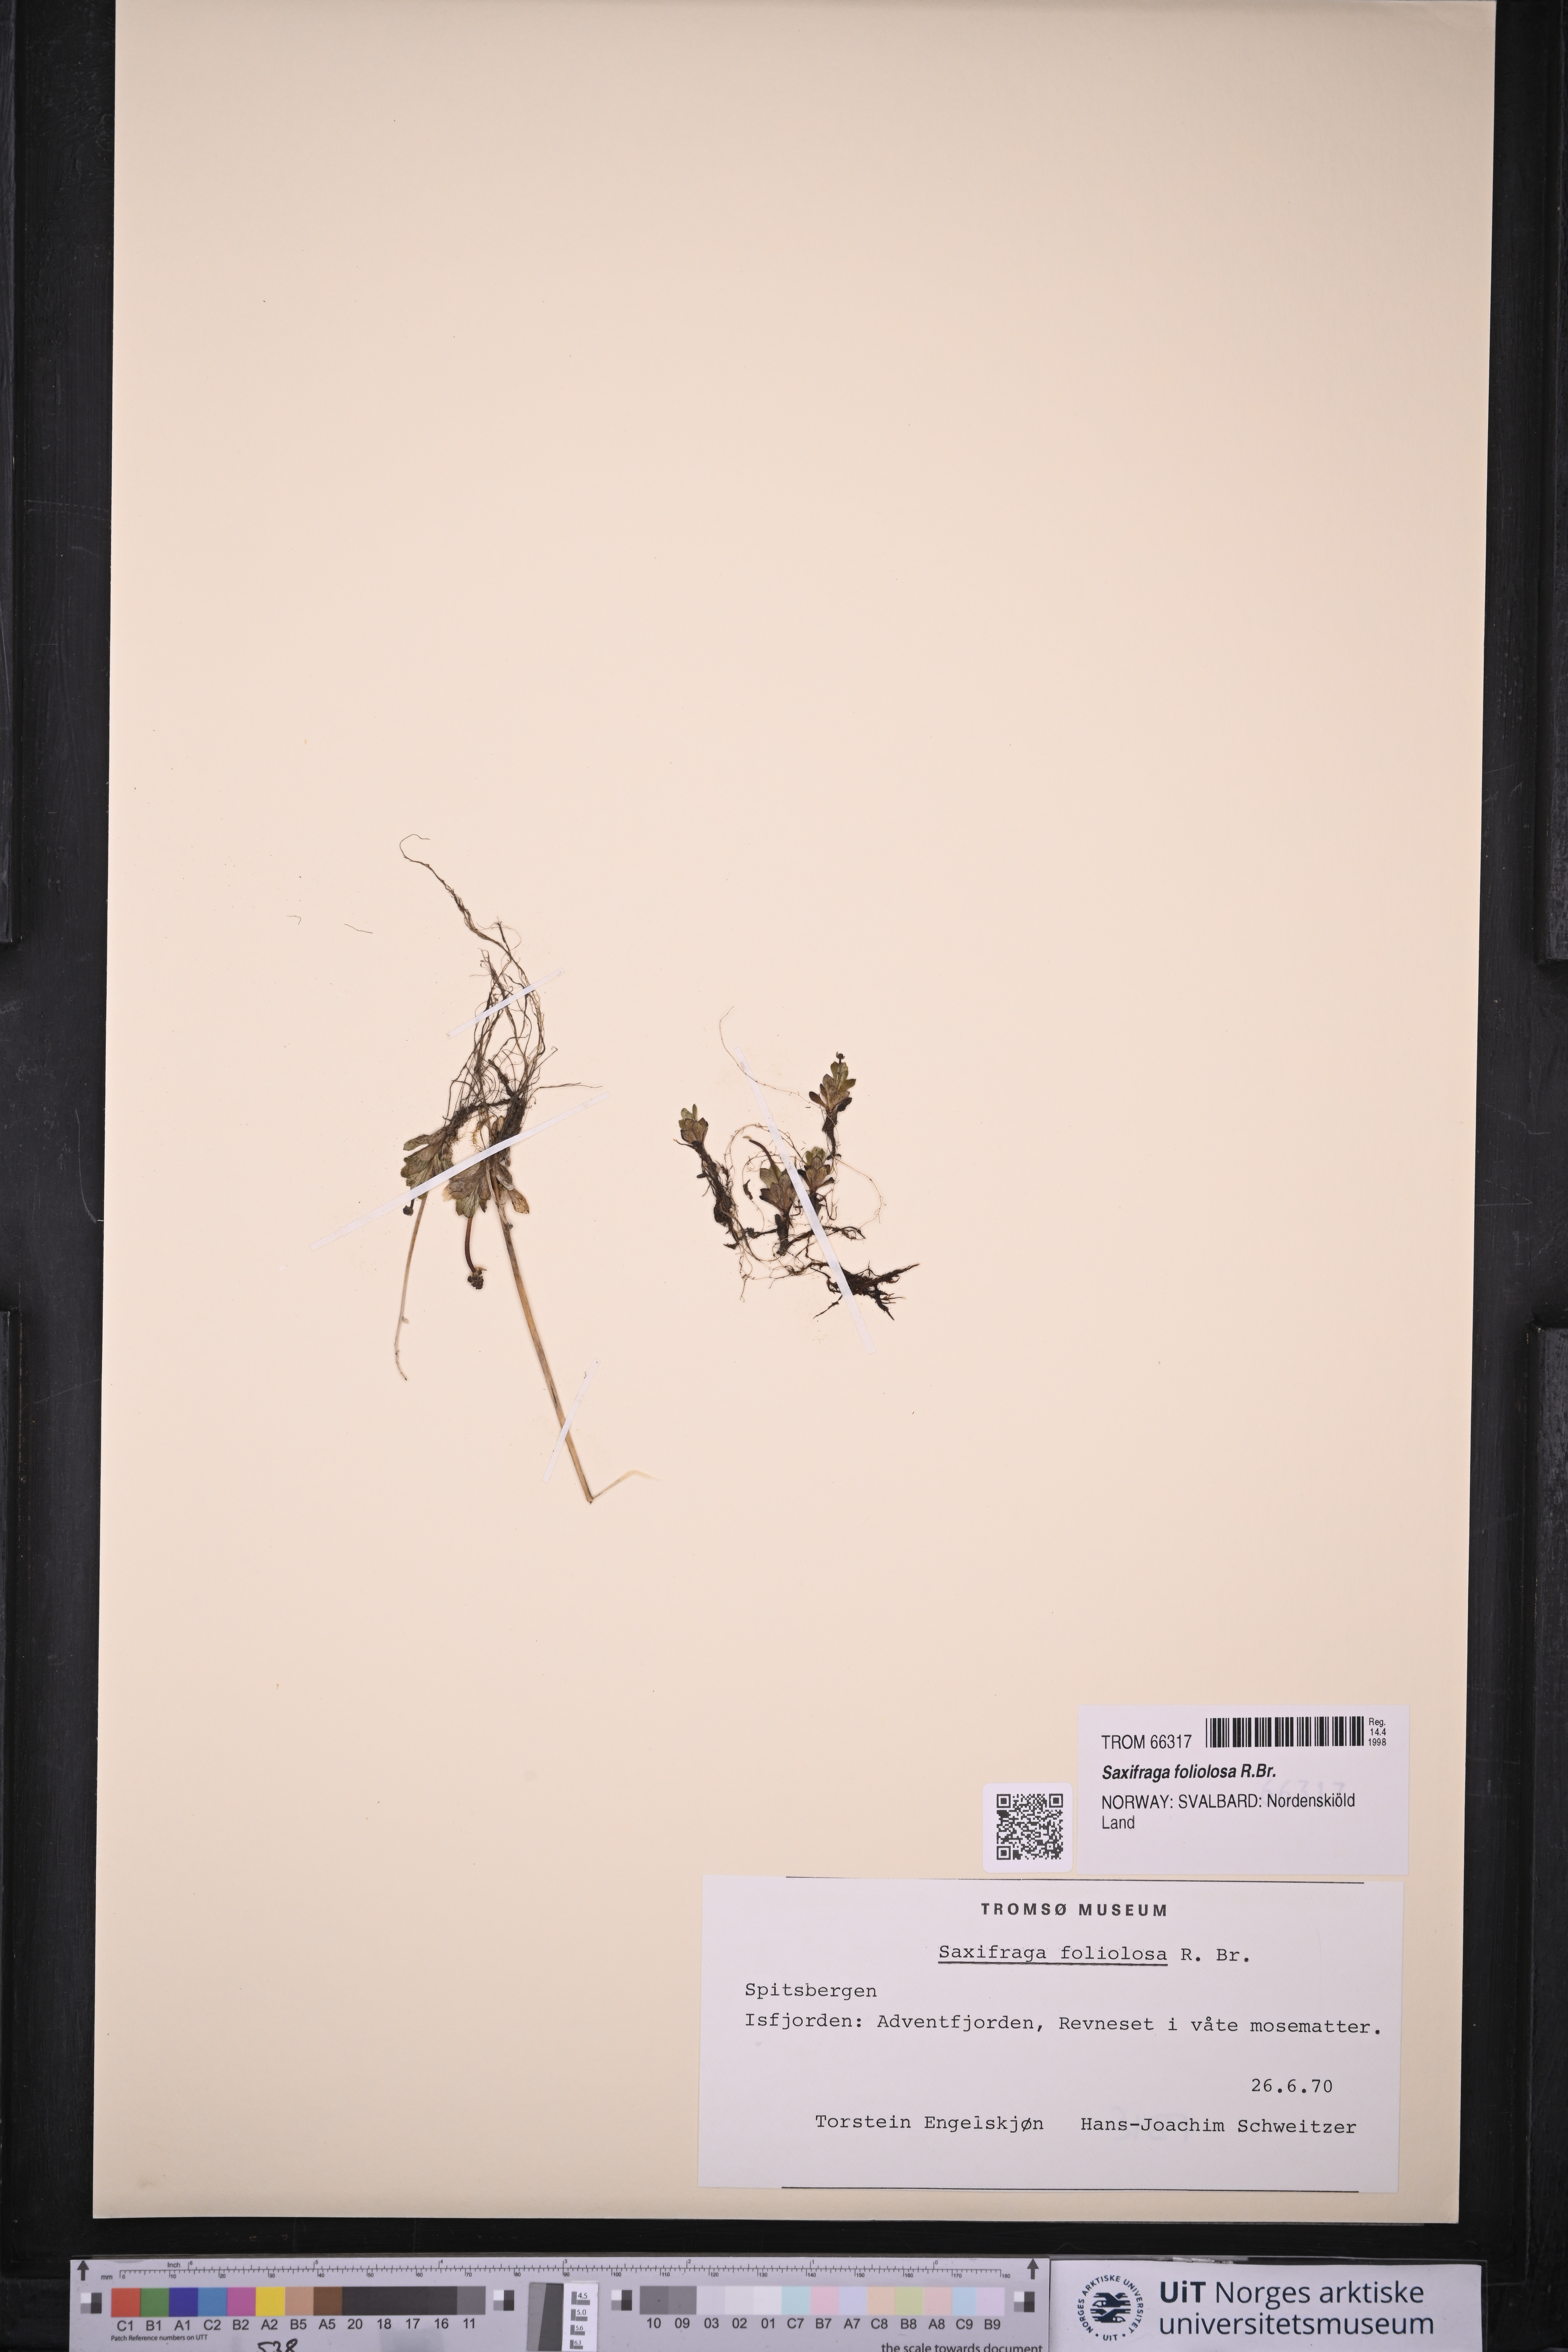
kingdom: Plantae
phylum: Tracheophyta
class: Magnoliopsida
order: Saxifragales
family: Saxifragaceae
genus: Micranthes
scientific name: Micranthes foliolosa
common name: Leafystem saxifrage
